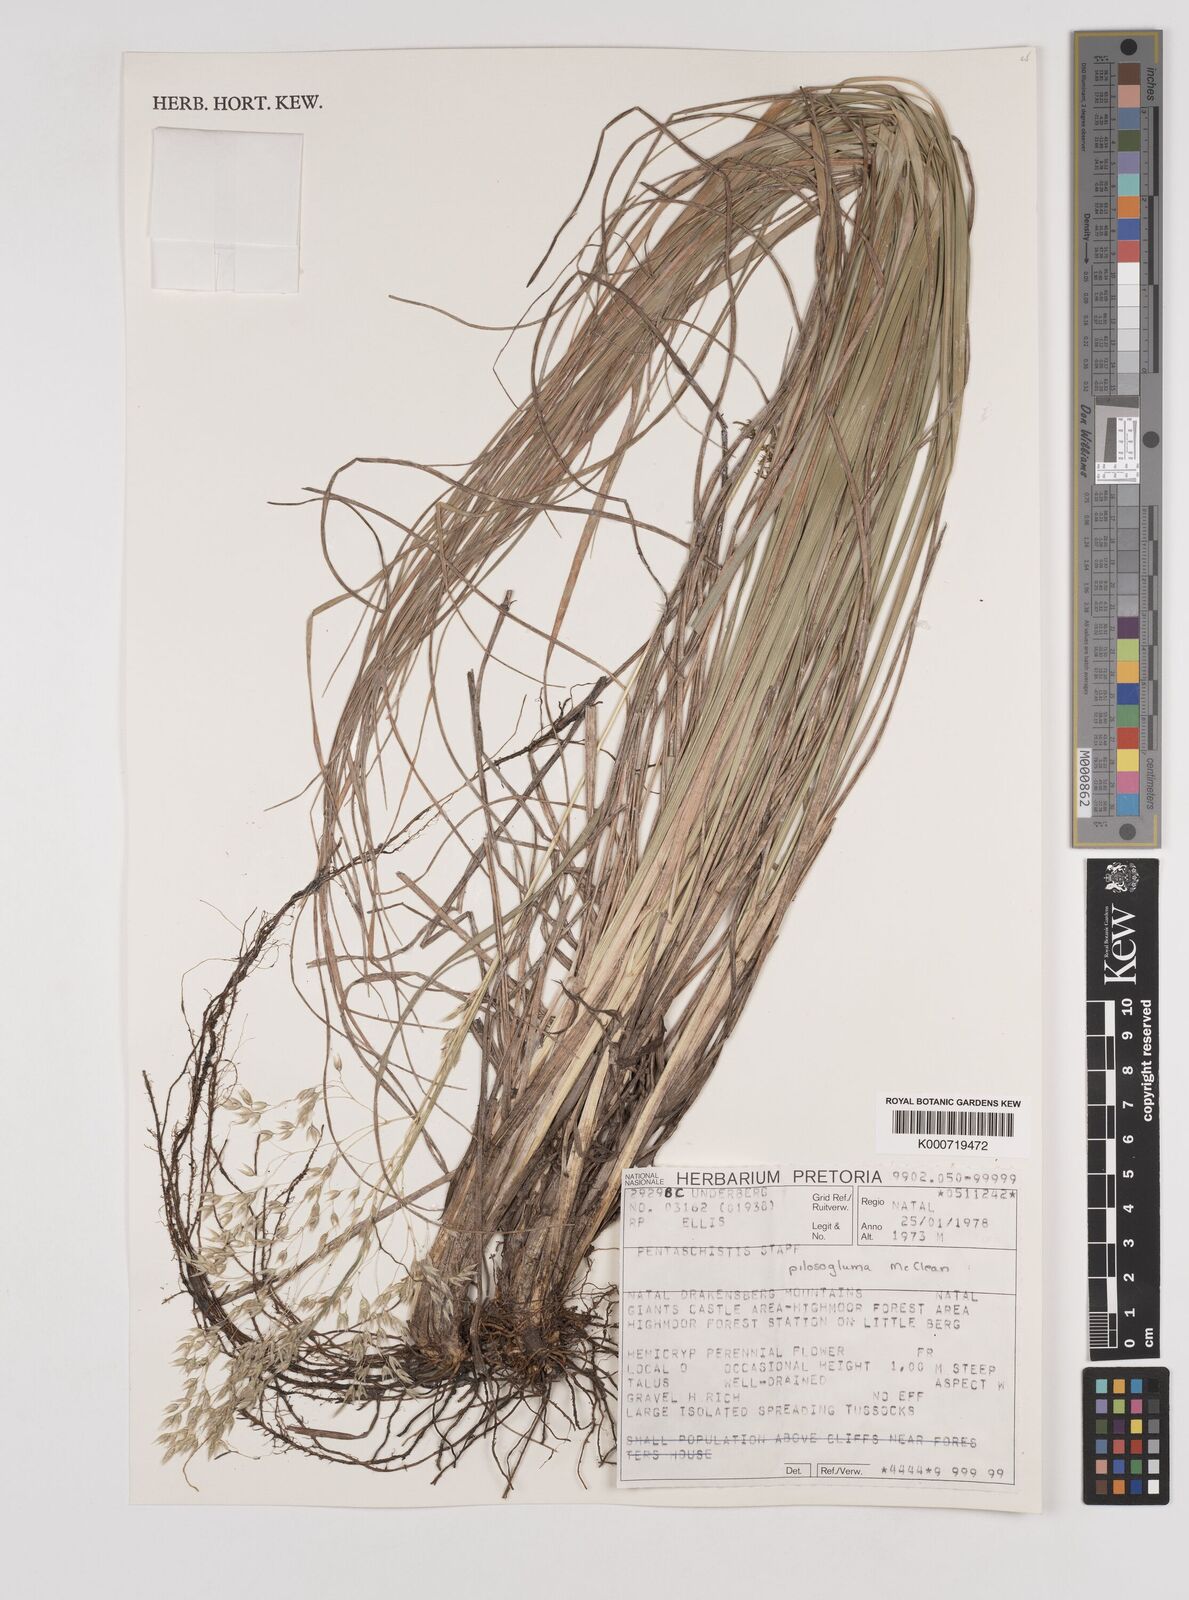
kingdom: Plantae
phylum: Tracheophyta
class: Liliopsida
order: Poales
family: Poaceae
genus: Pentameris
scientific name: Pentameris aurea
